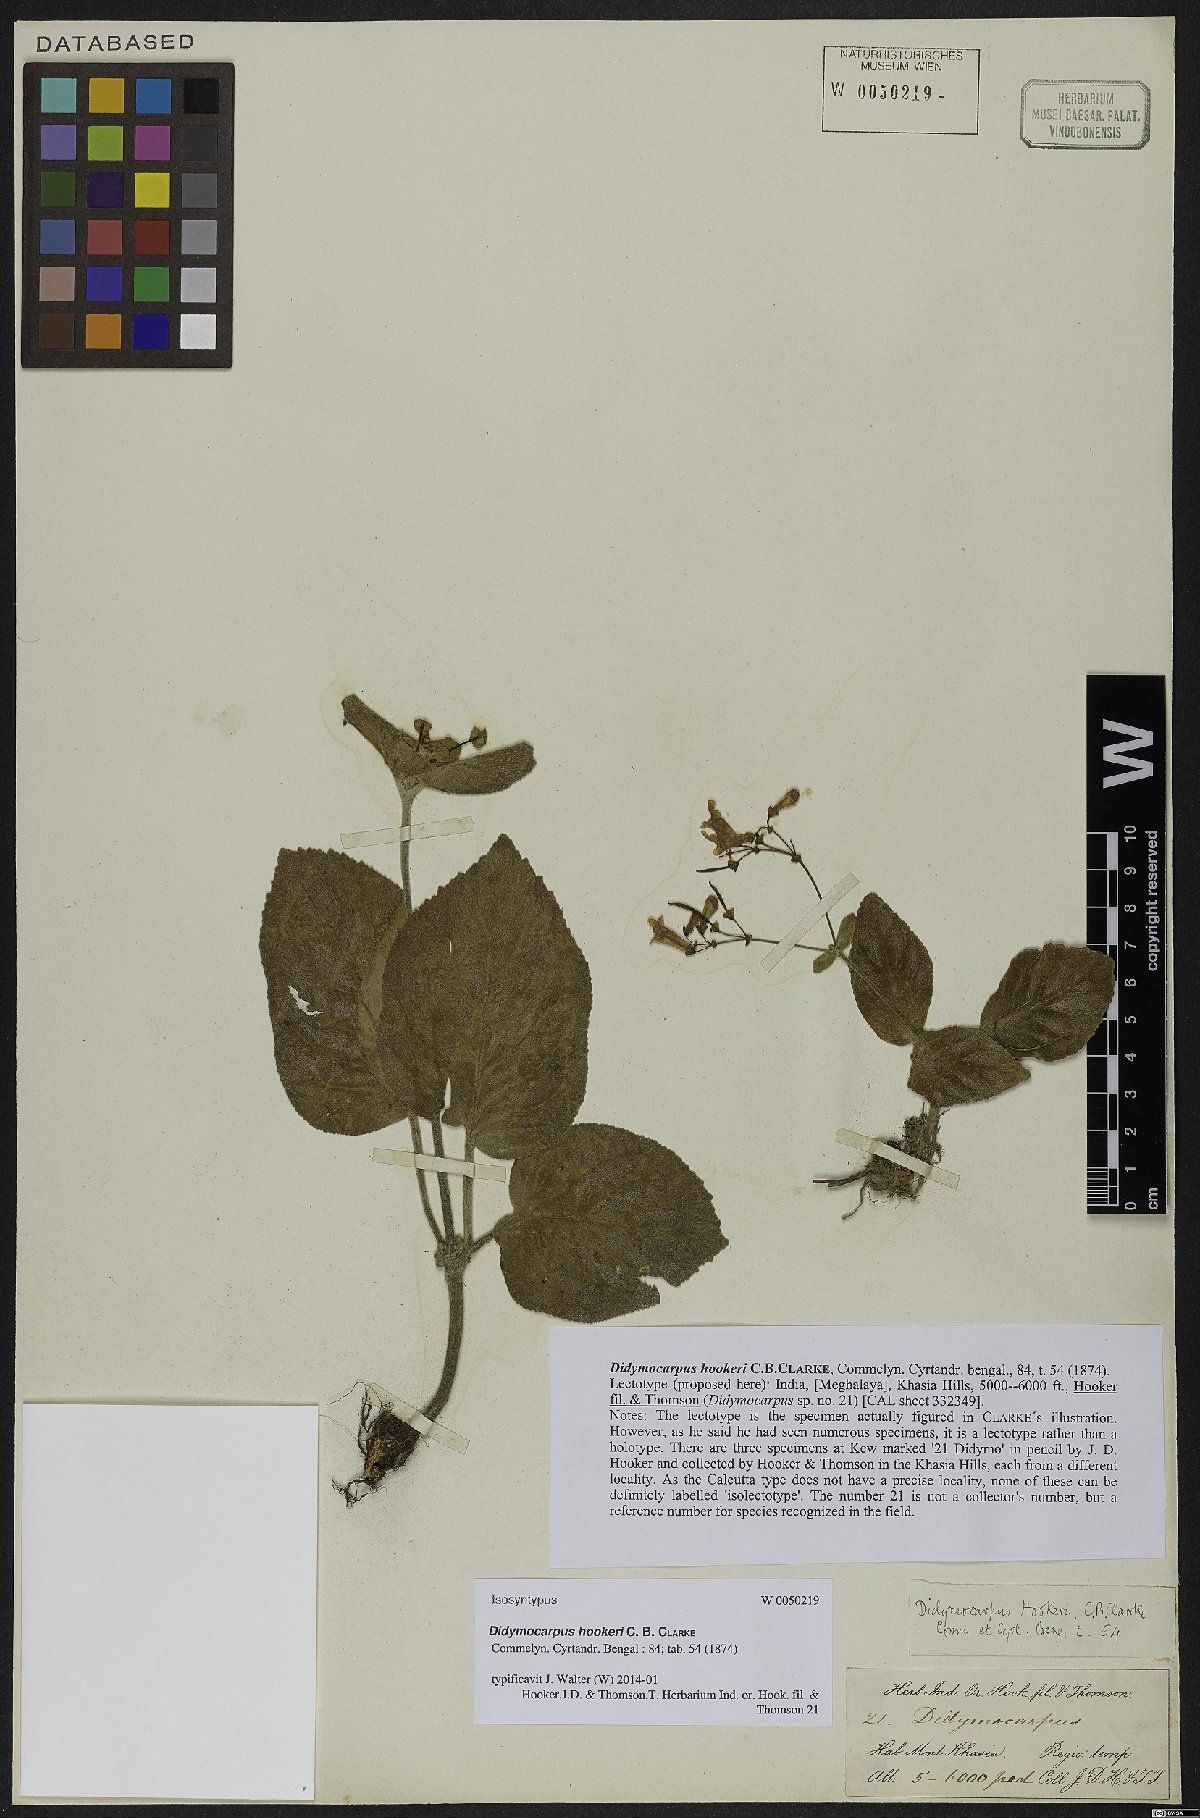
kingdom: Plantae
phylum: Tracheophyta
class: Magnoliopsida
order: Lamiales
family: Gesneriaceae
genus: Didymocarpus
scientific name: Didymocarpus hookeri
